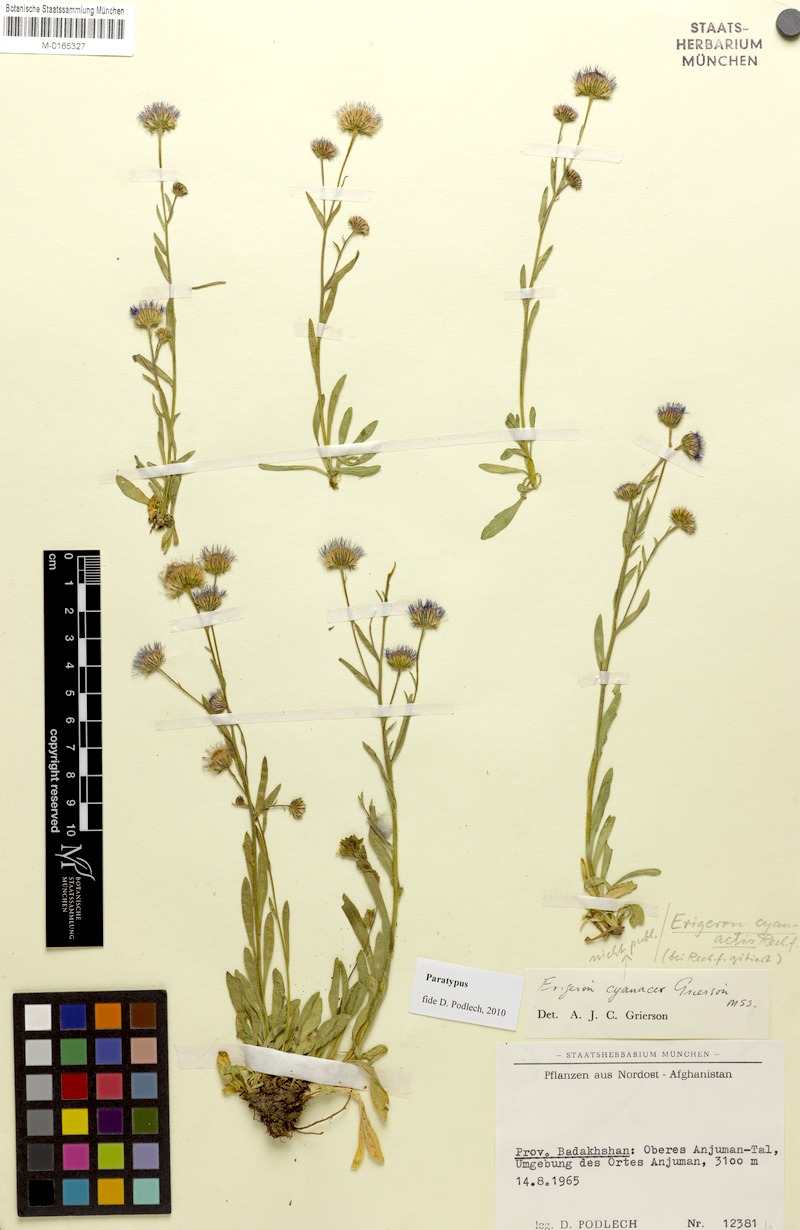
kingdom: Plantae
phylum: Tracheophyta
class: Magnoliopsida
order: Asterales
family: Asteraceae
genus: Erigeron
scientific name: Erigeron cyanactis
